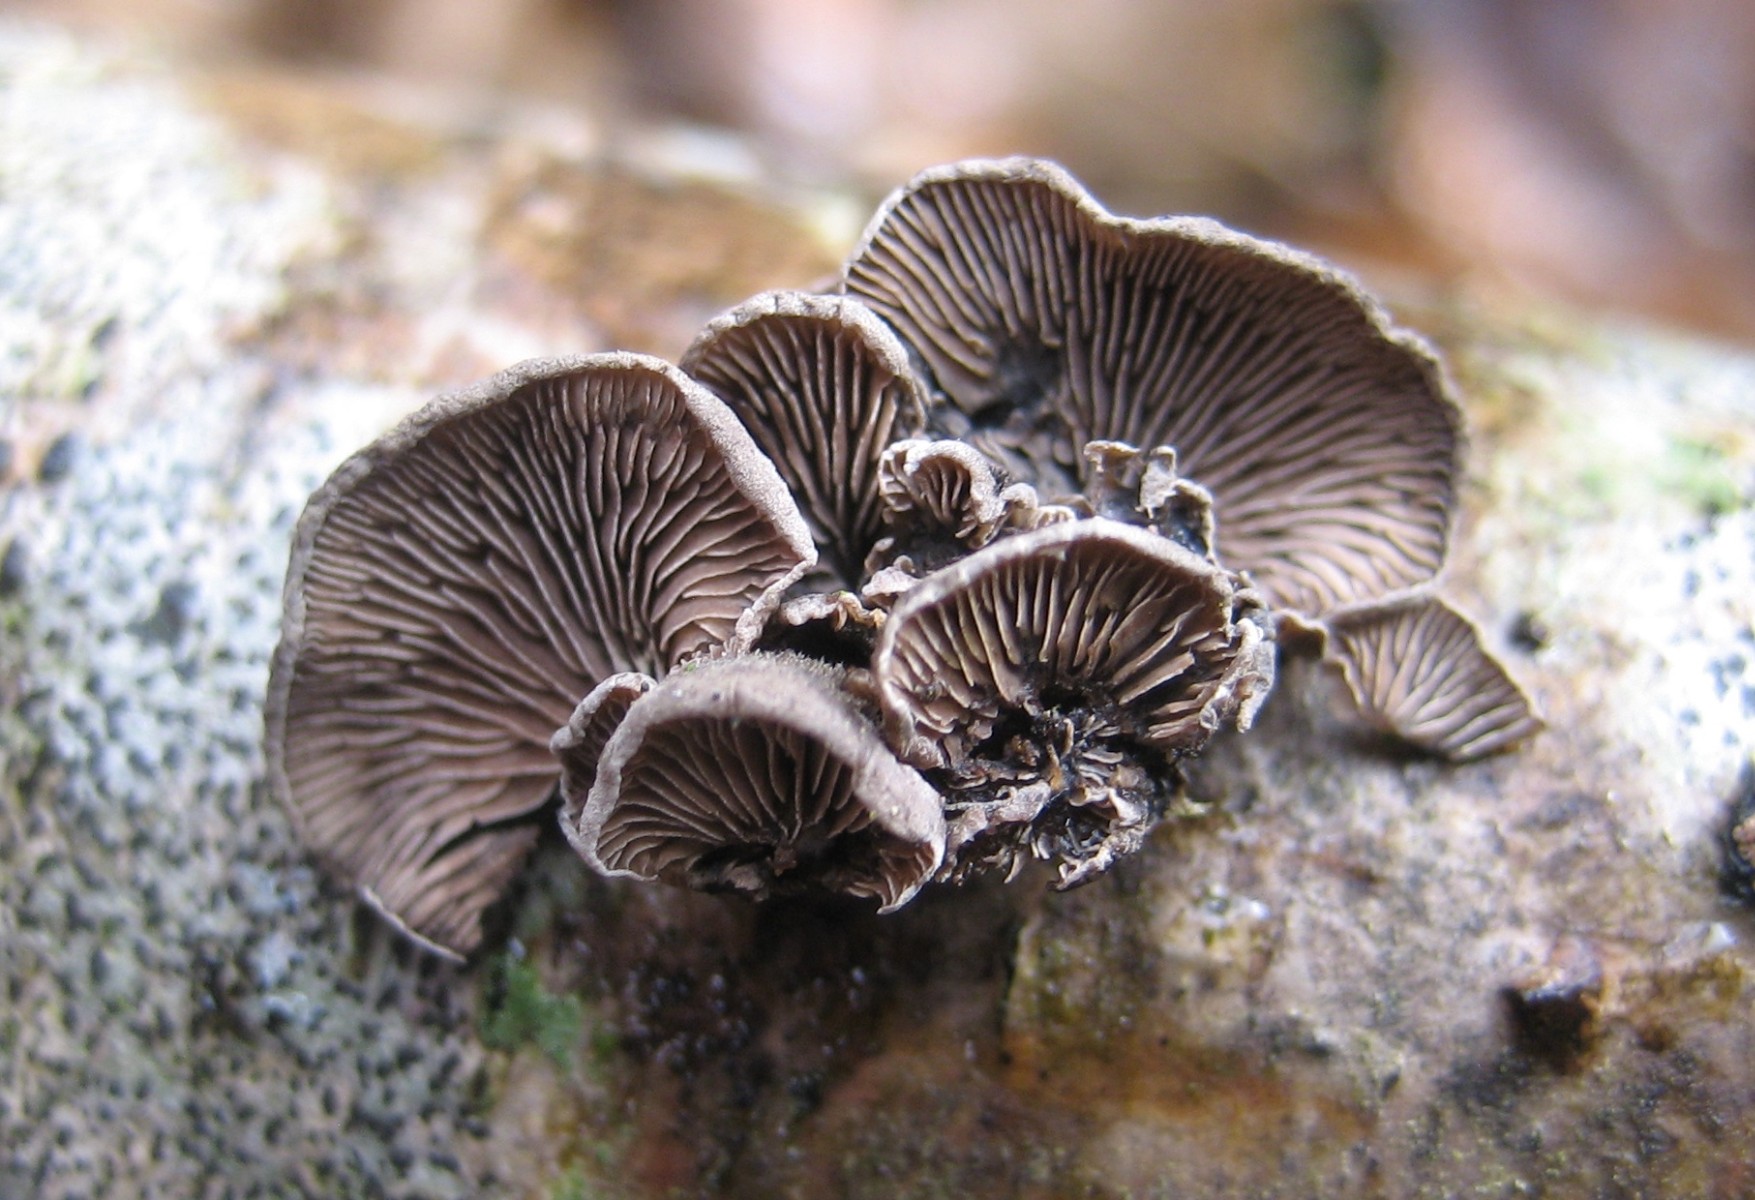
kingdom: Fungi
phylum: Basidiomycota
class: Agaricomycetes
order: Agaricales
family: Pleurotaceae
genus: Resupinatus
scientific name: Resupinatus trichotis
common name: mørkfiltet barkhat
